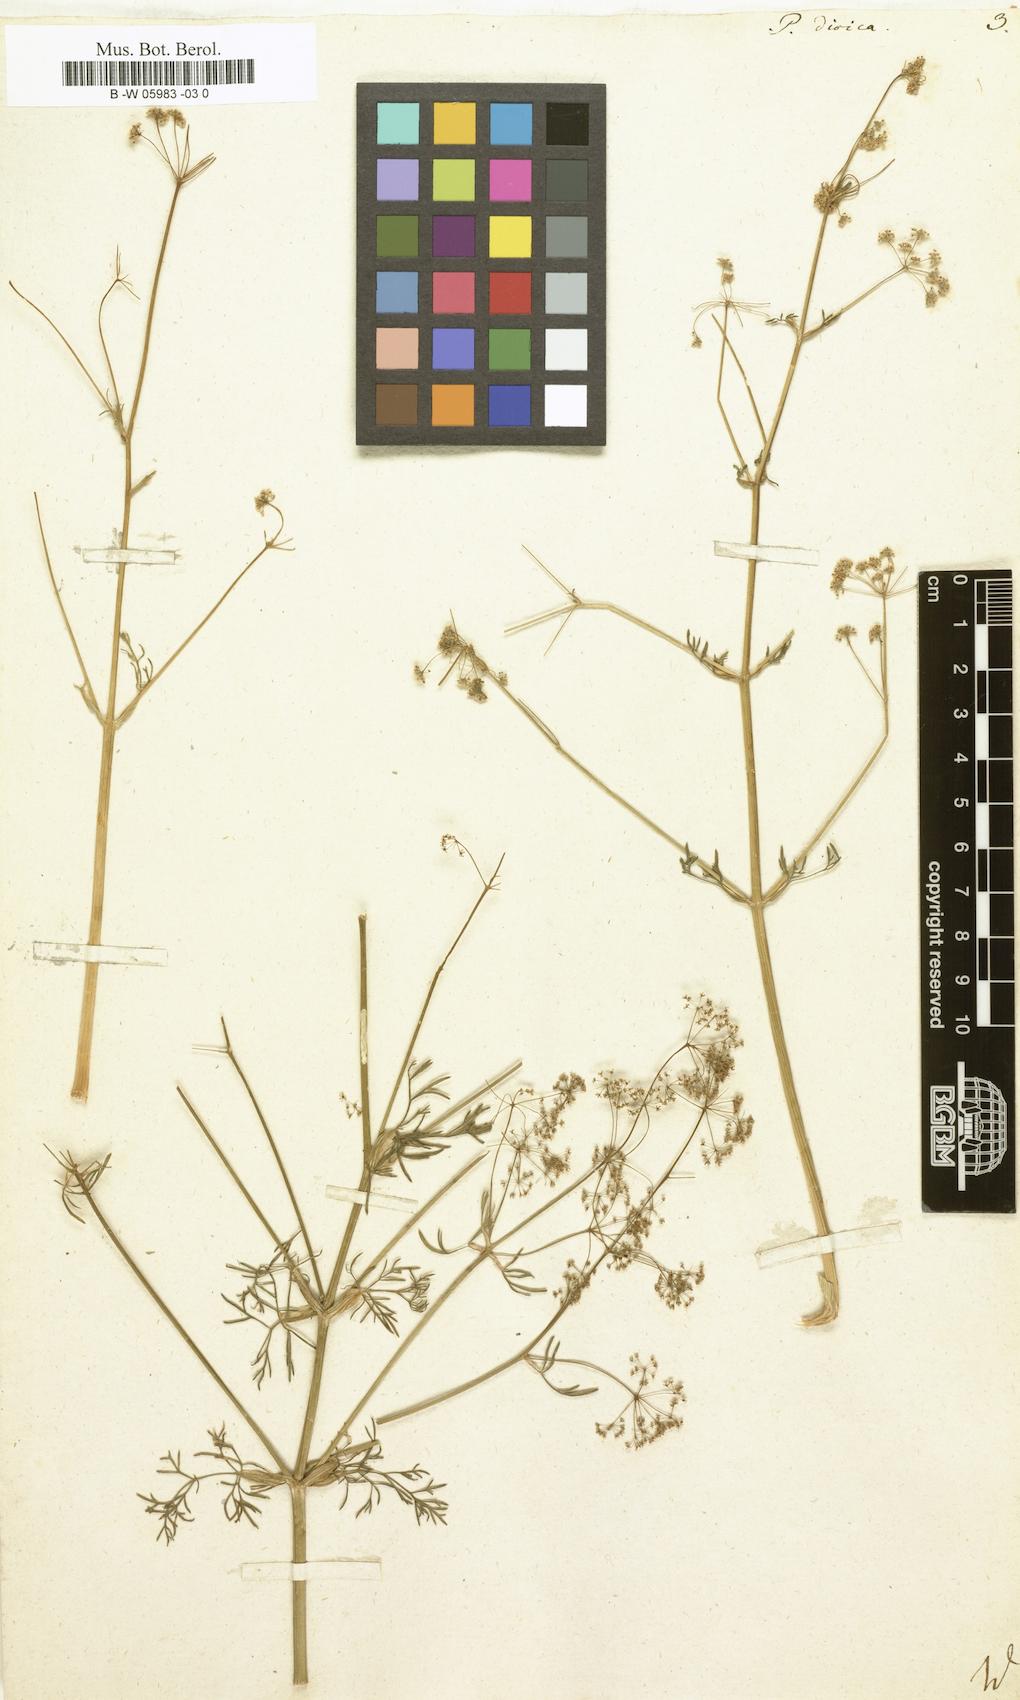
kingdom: Plantae
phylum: Tracheophyta
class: Magnoliopsida
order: Apiales
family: Apiaceae
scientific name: Apiaceae
